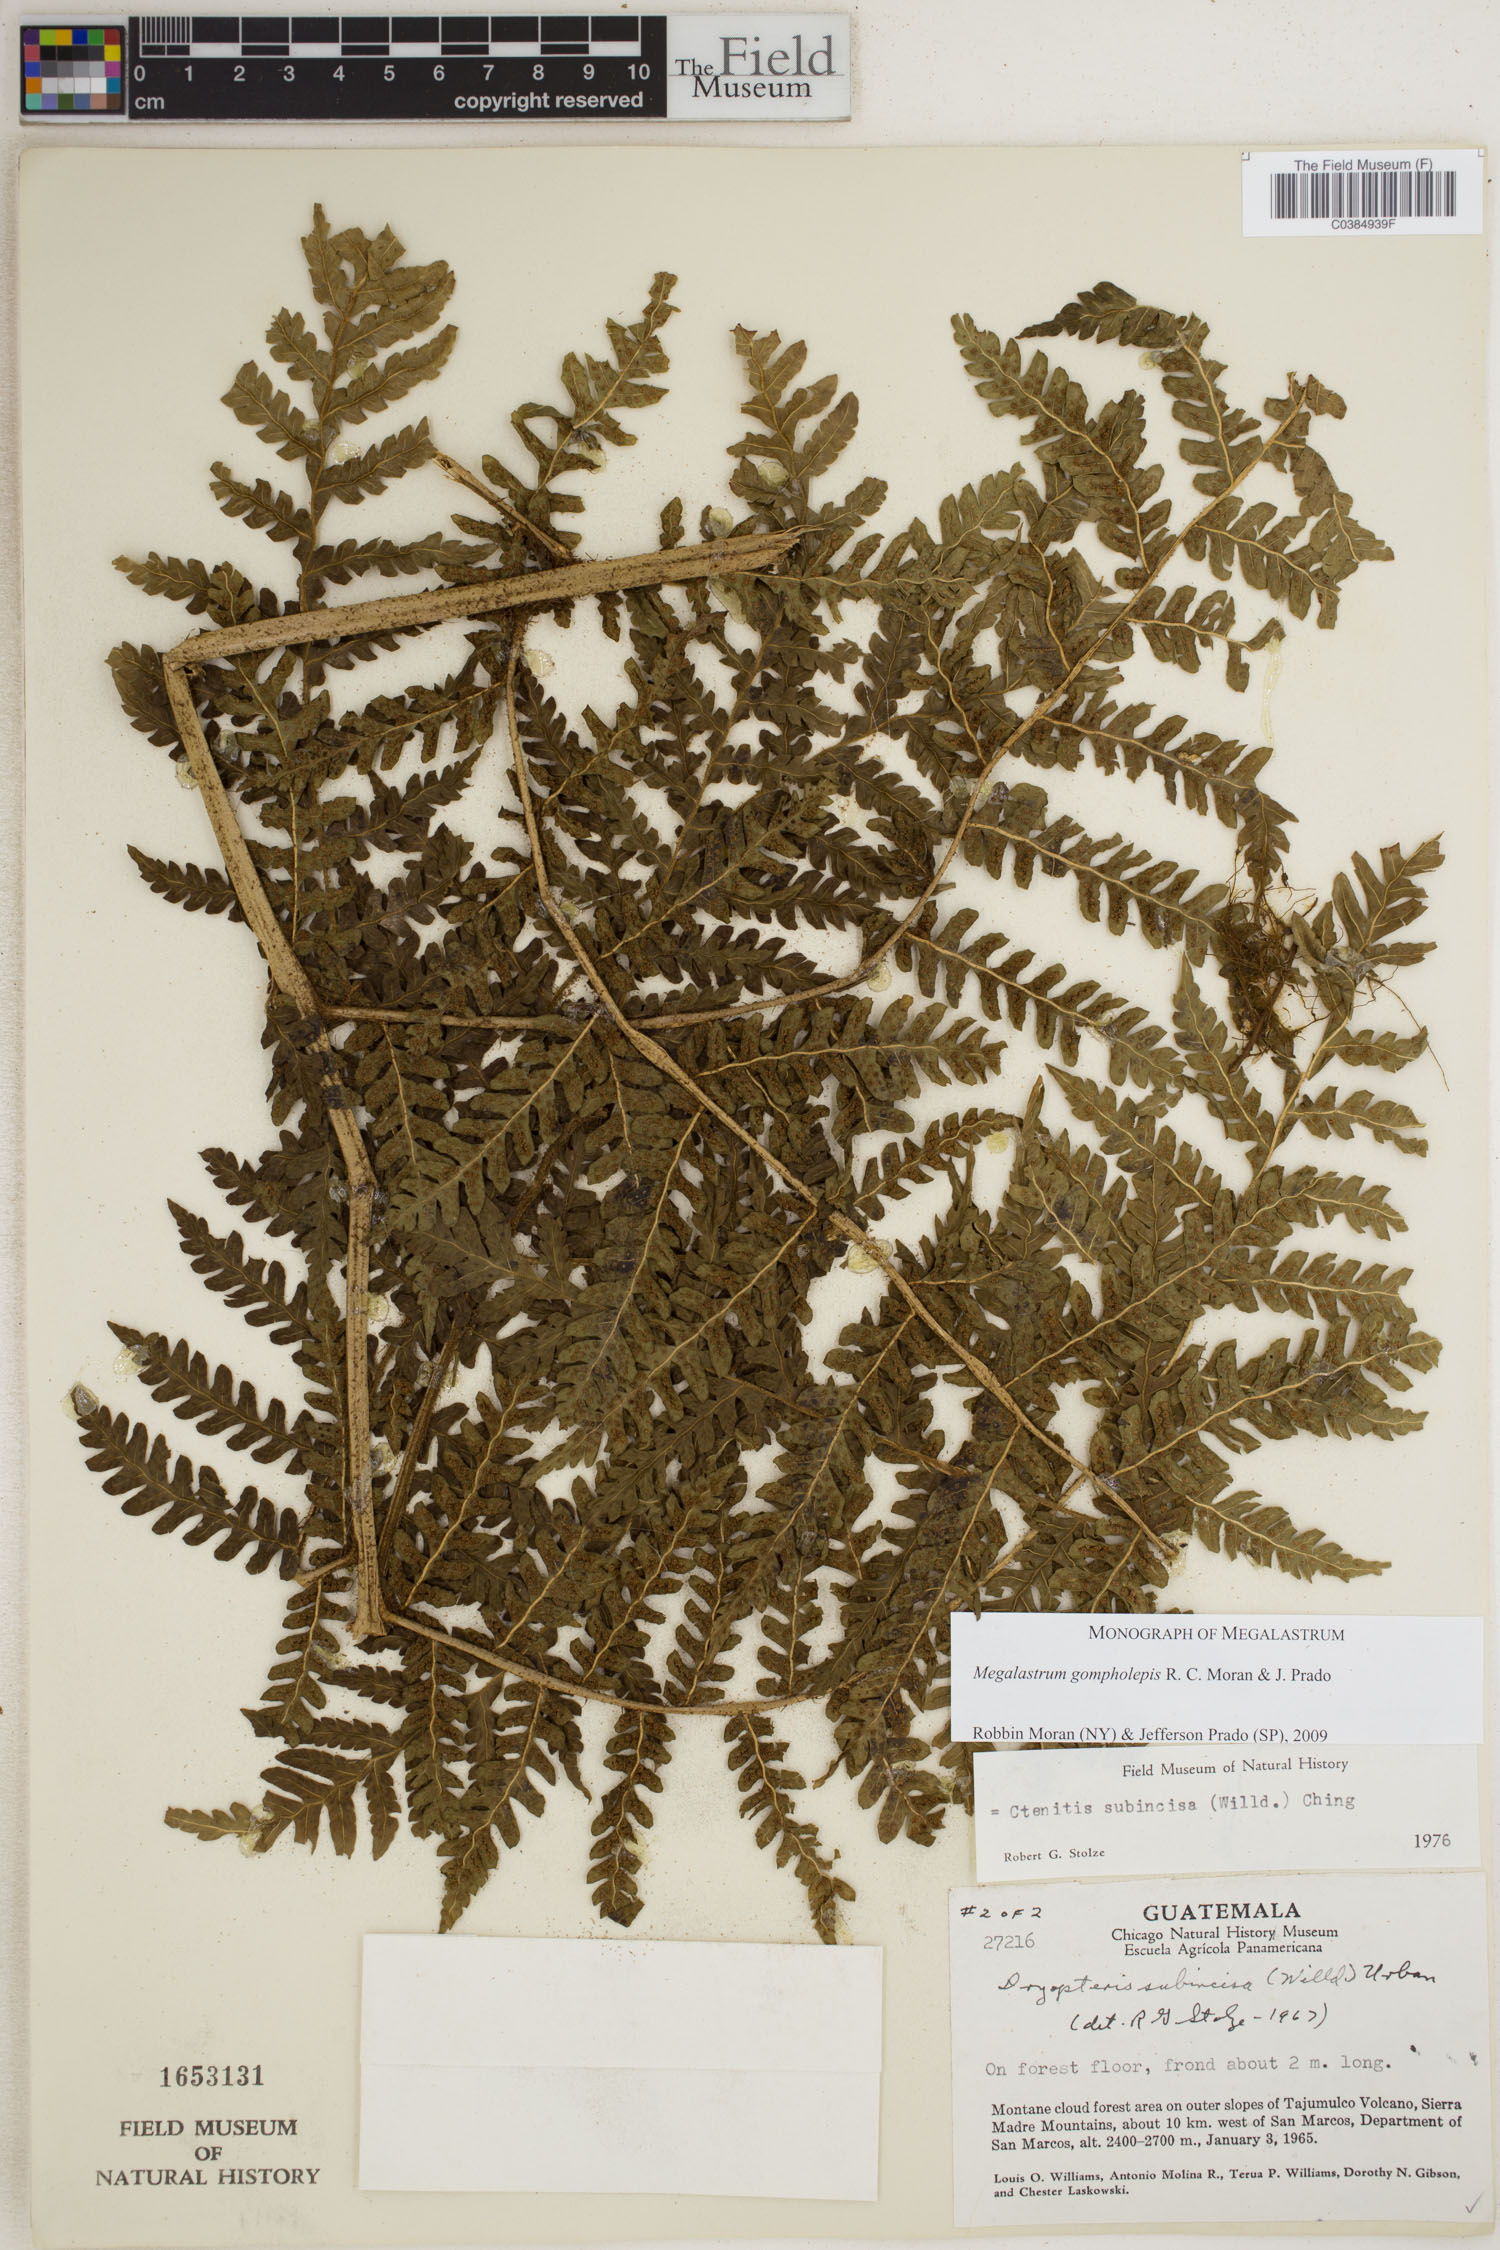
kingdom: Plantae
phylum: Tracheophyta
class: Polypodiopsida
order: Polypodiales
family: Dryopteridaceae
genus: Megalastrum
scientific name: Megalastrum gompholepis
